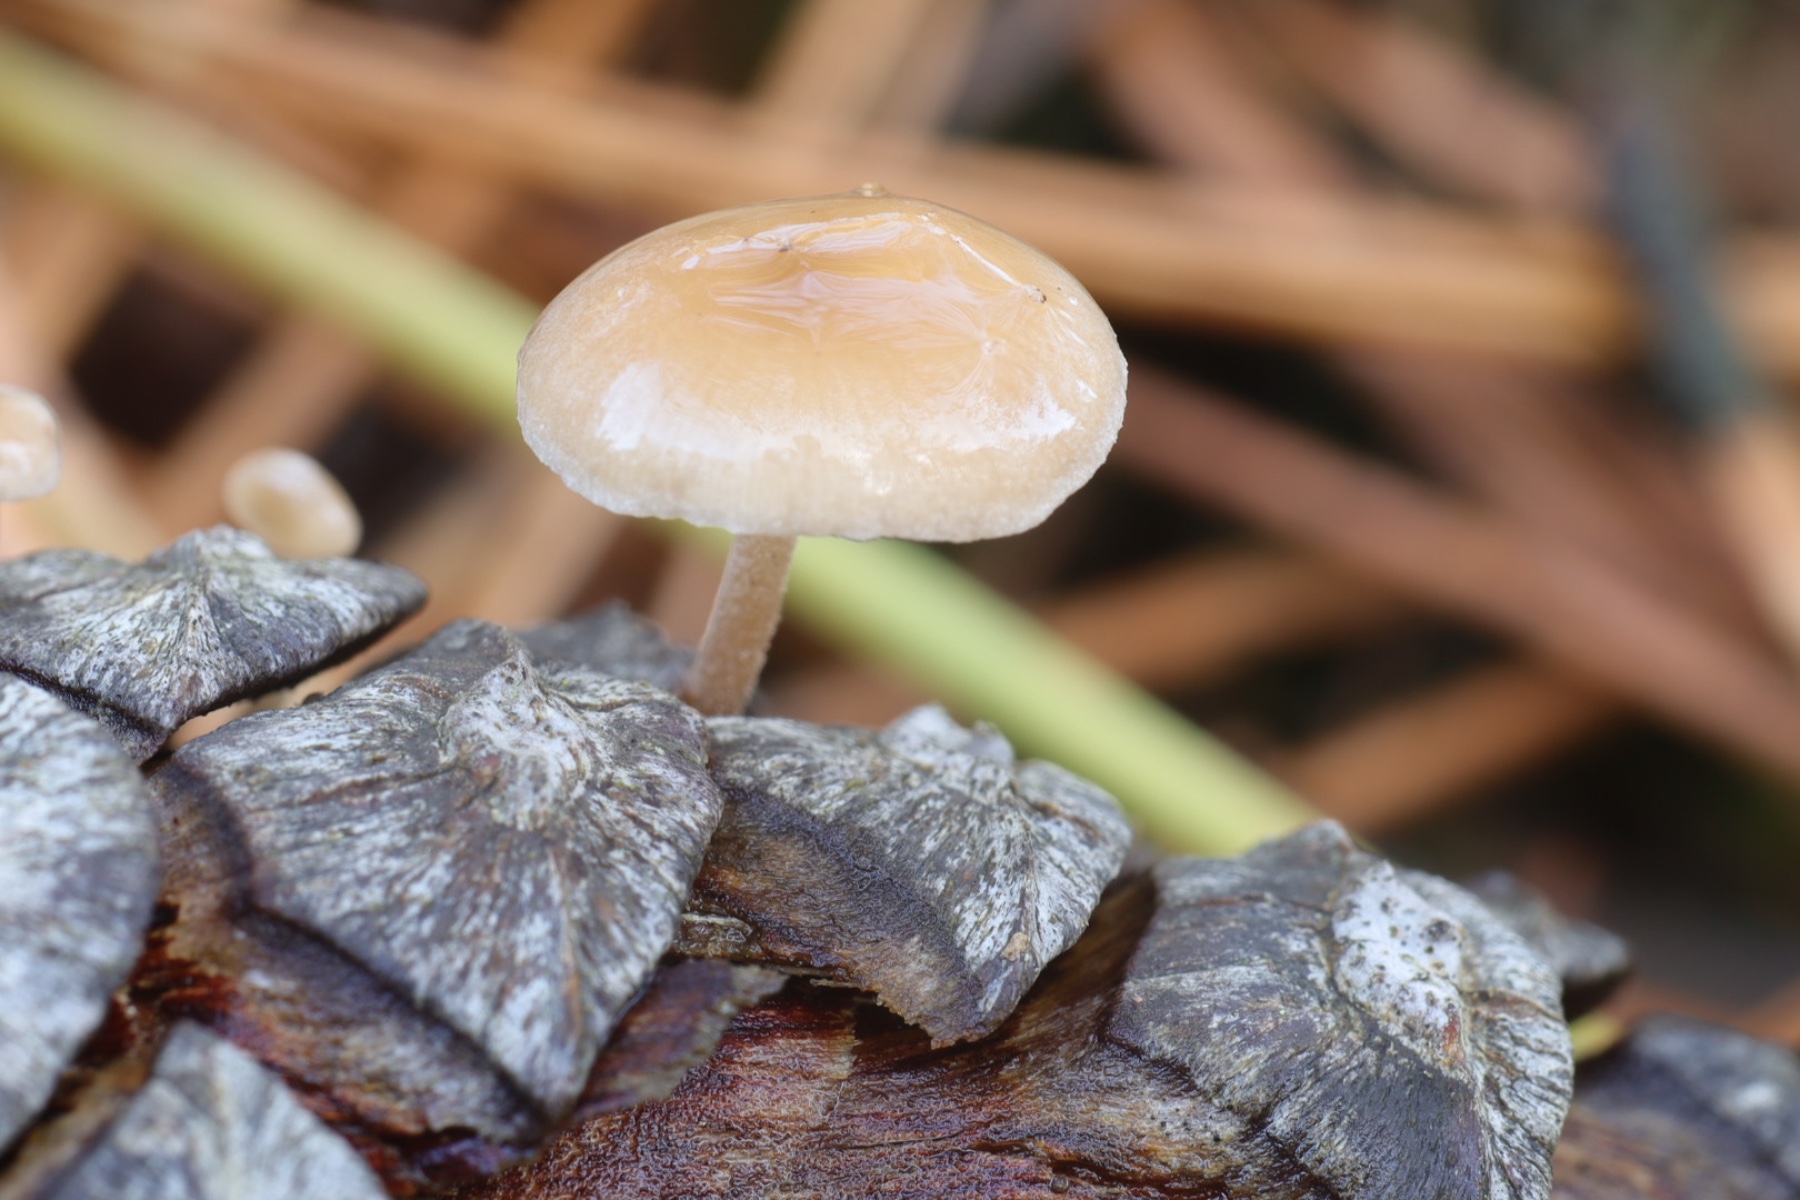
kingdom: Fungi
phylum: Basidiomycota
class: Agaricomycetes
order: Agaricales
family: Marasmiaceae
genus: Baeospora
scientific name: Baeospora myosura
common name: koglebruskhat
